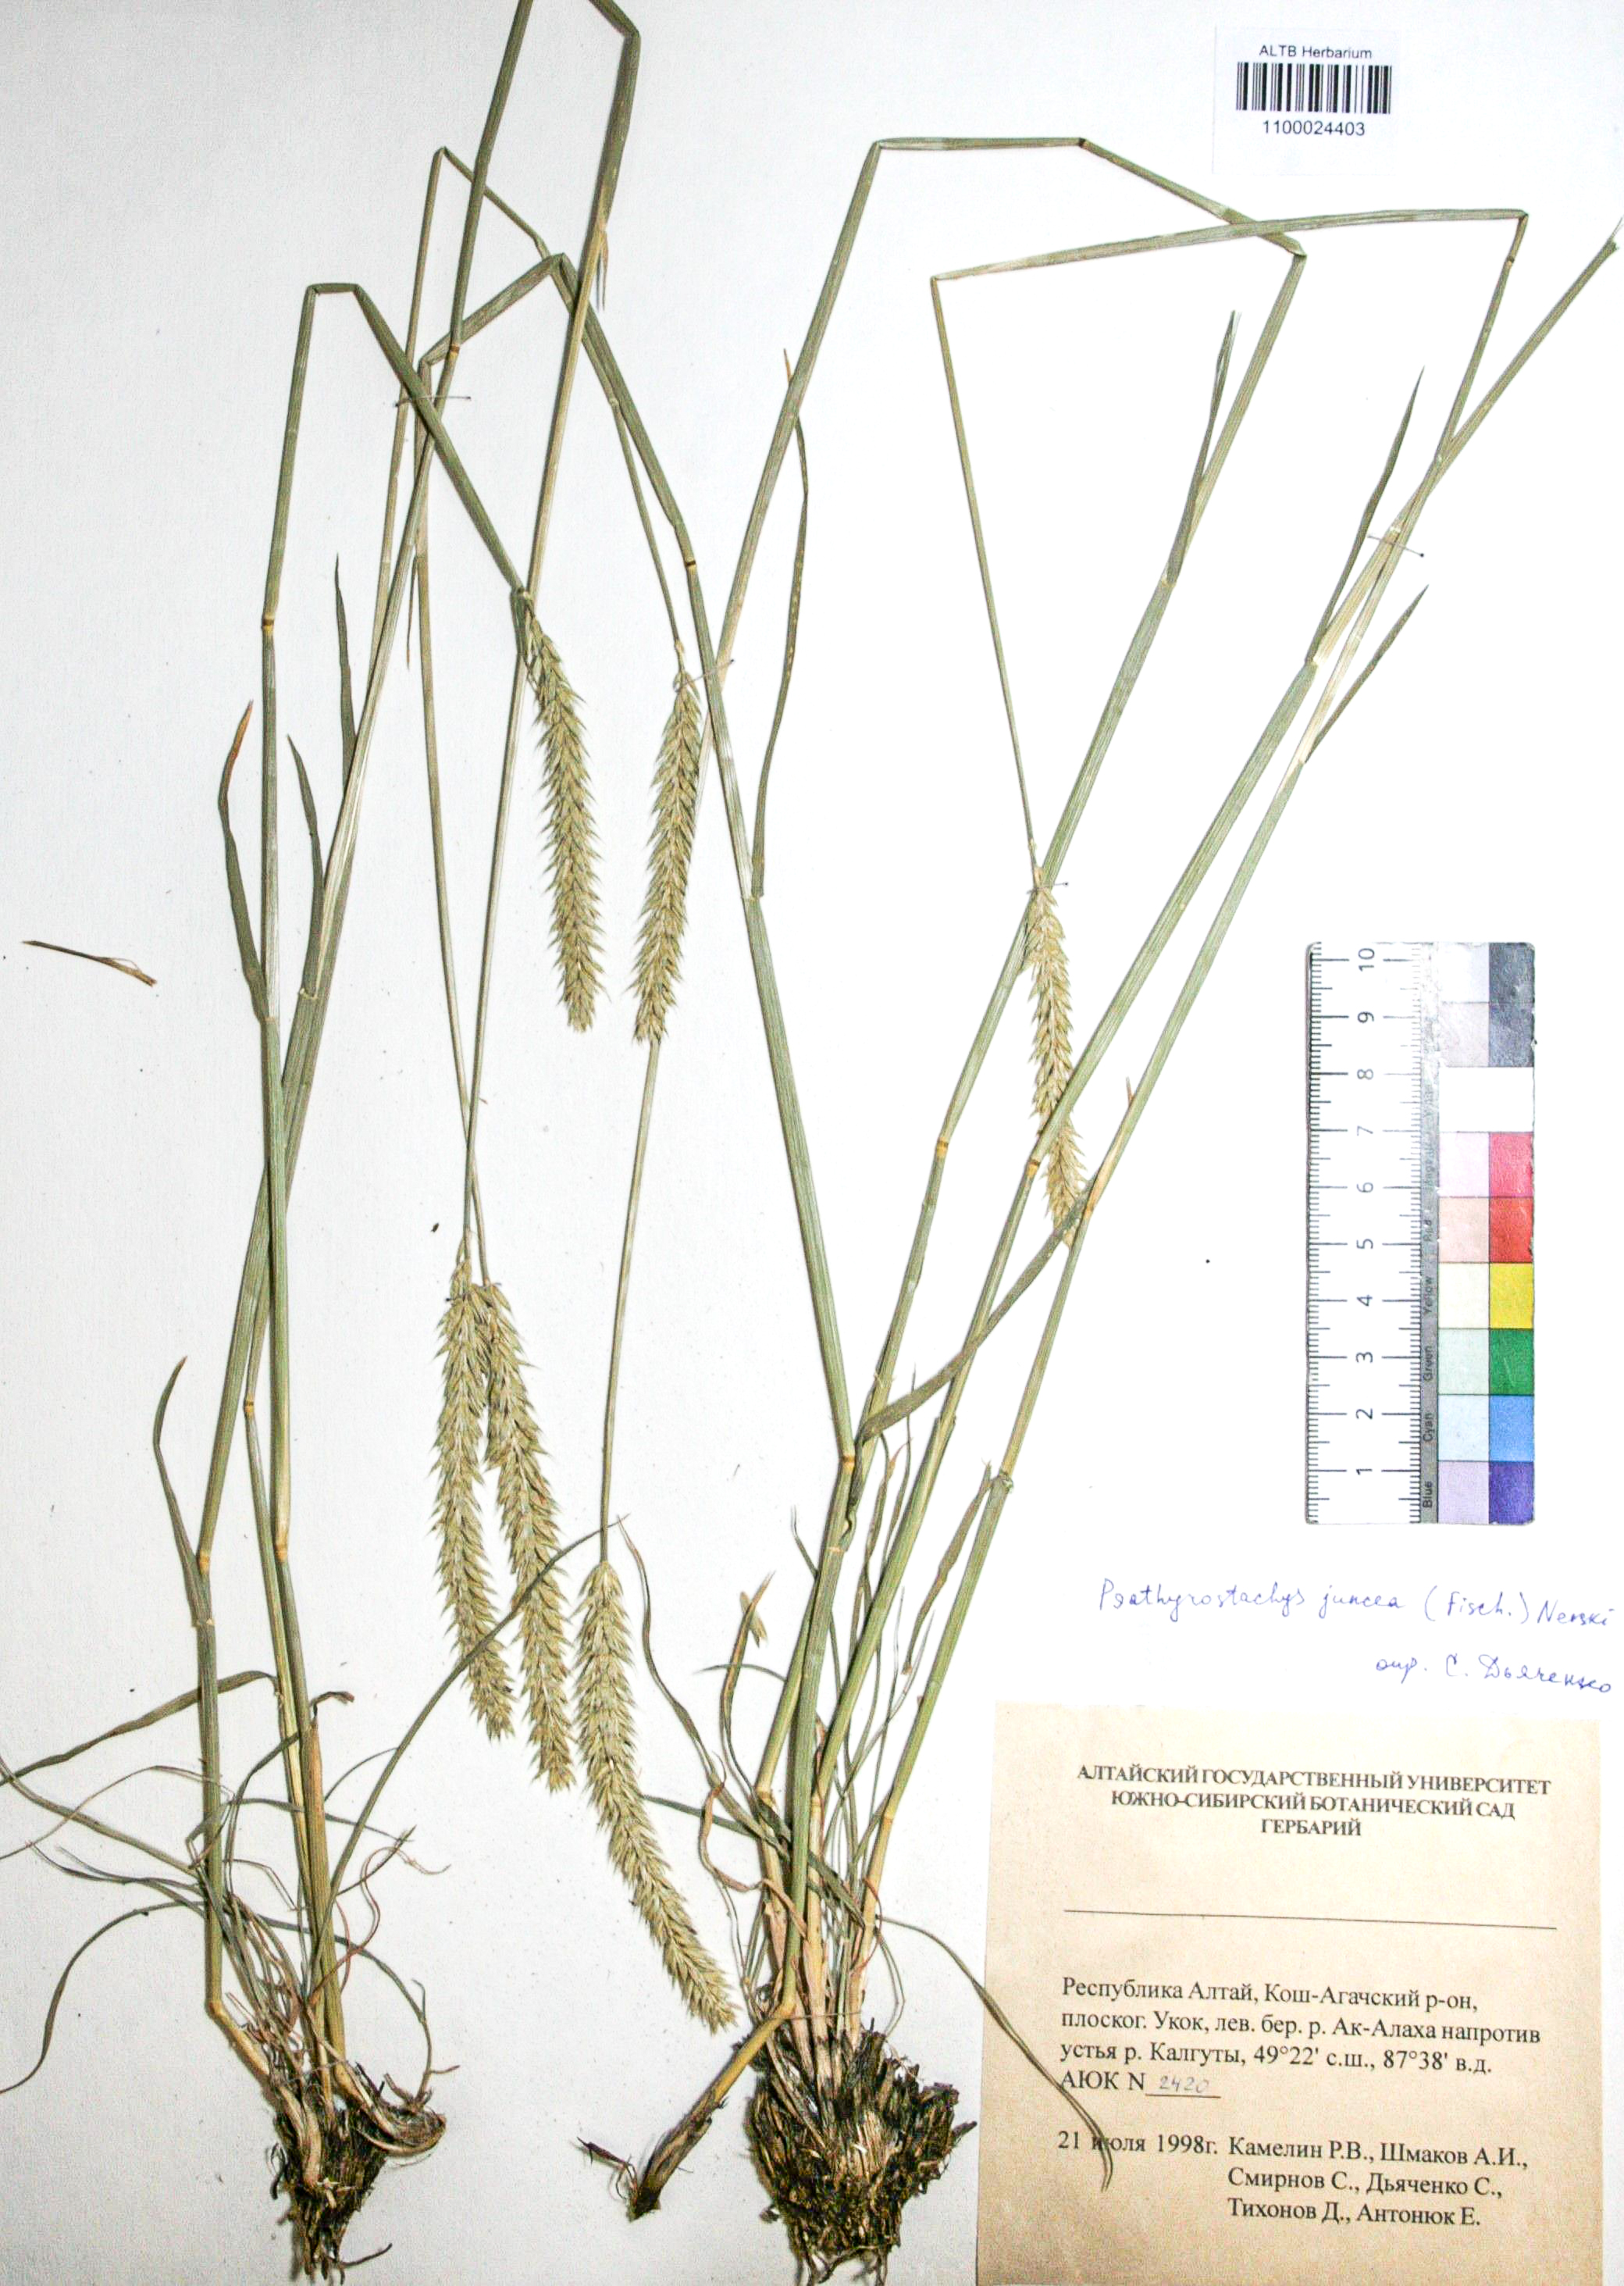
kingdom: Plantae
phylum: Tracheophyta
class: Liliopsida
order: Poales
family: Poaceae
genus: Psathyrostachys
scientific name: Psathyrostachys juncea
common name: Russian wildrye
